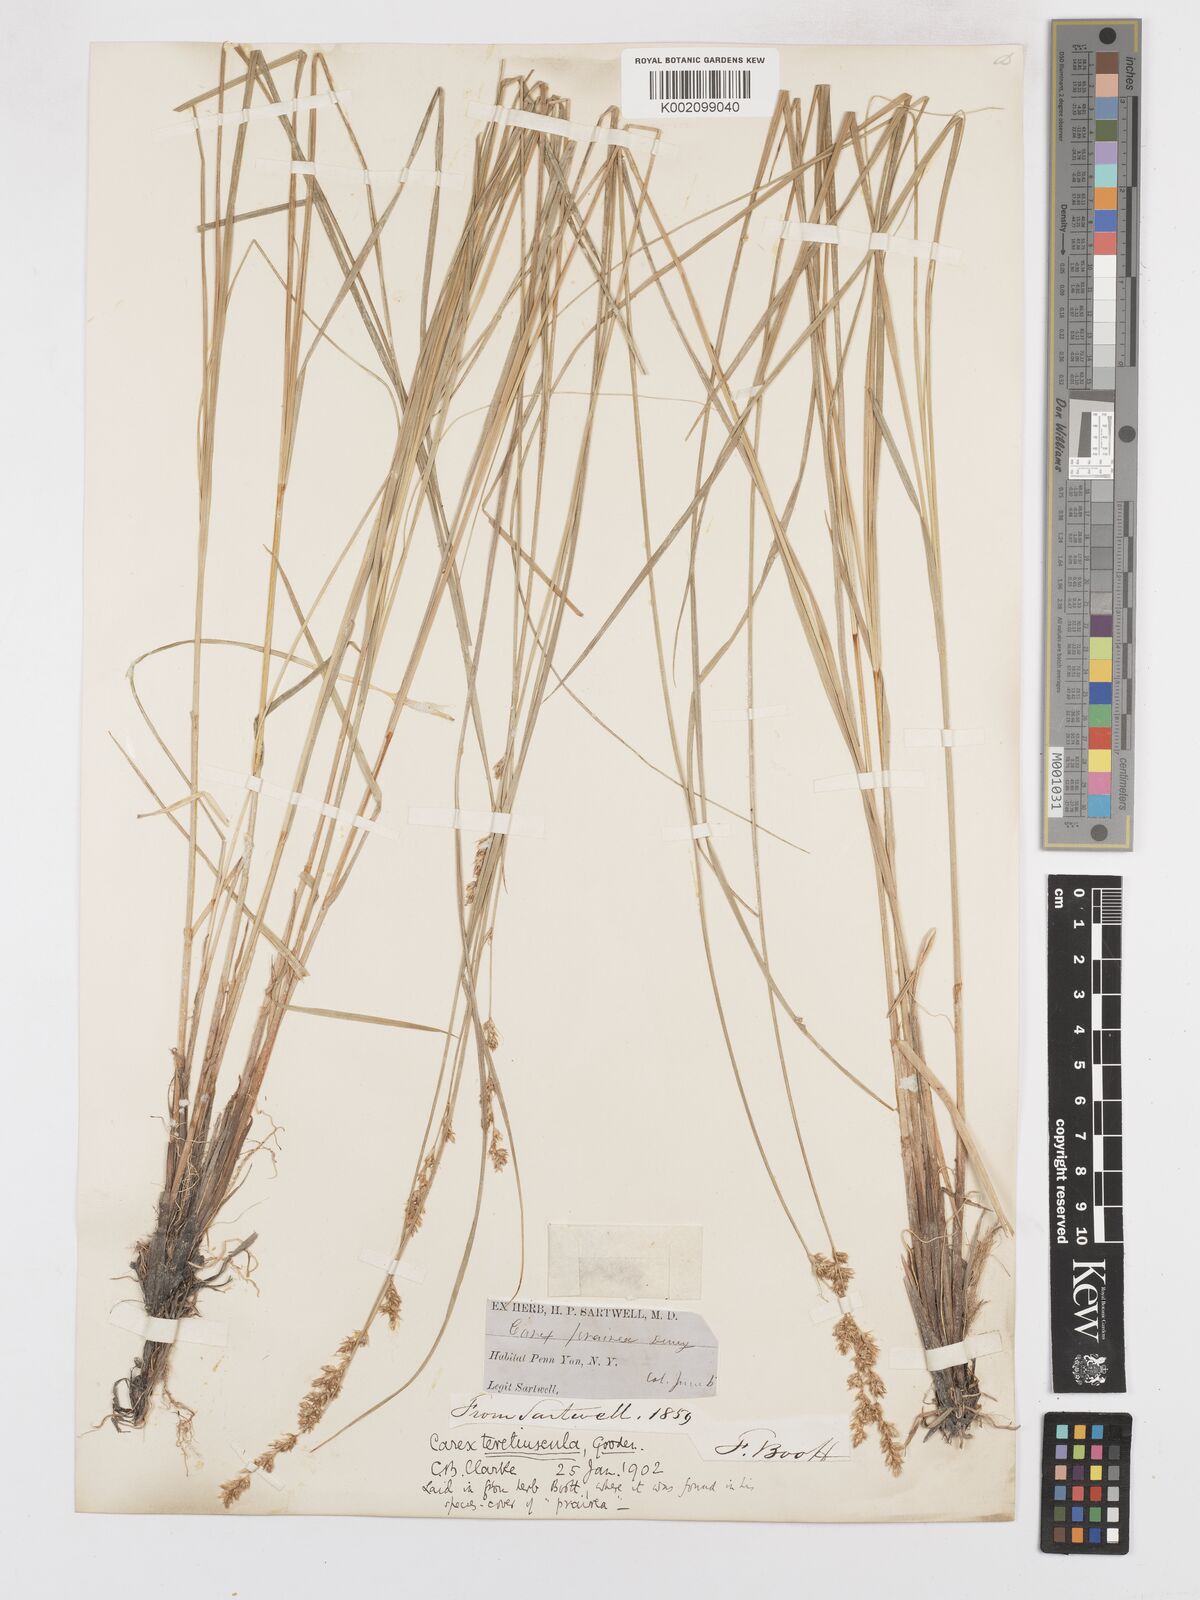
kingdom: Plantae
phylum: Tracheophyta
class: Liliopsida
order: Poales
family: Cyperaceae
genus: Carex
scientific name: Carex diandra
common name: Lesser tussock-sedge
